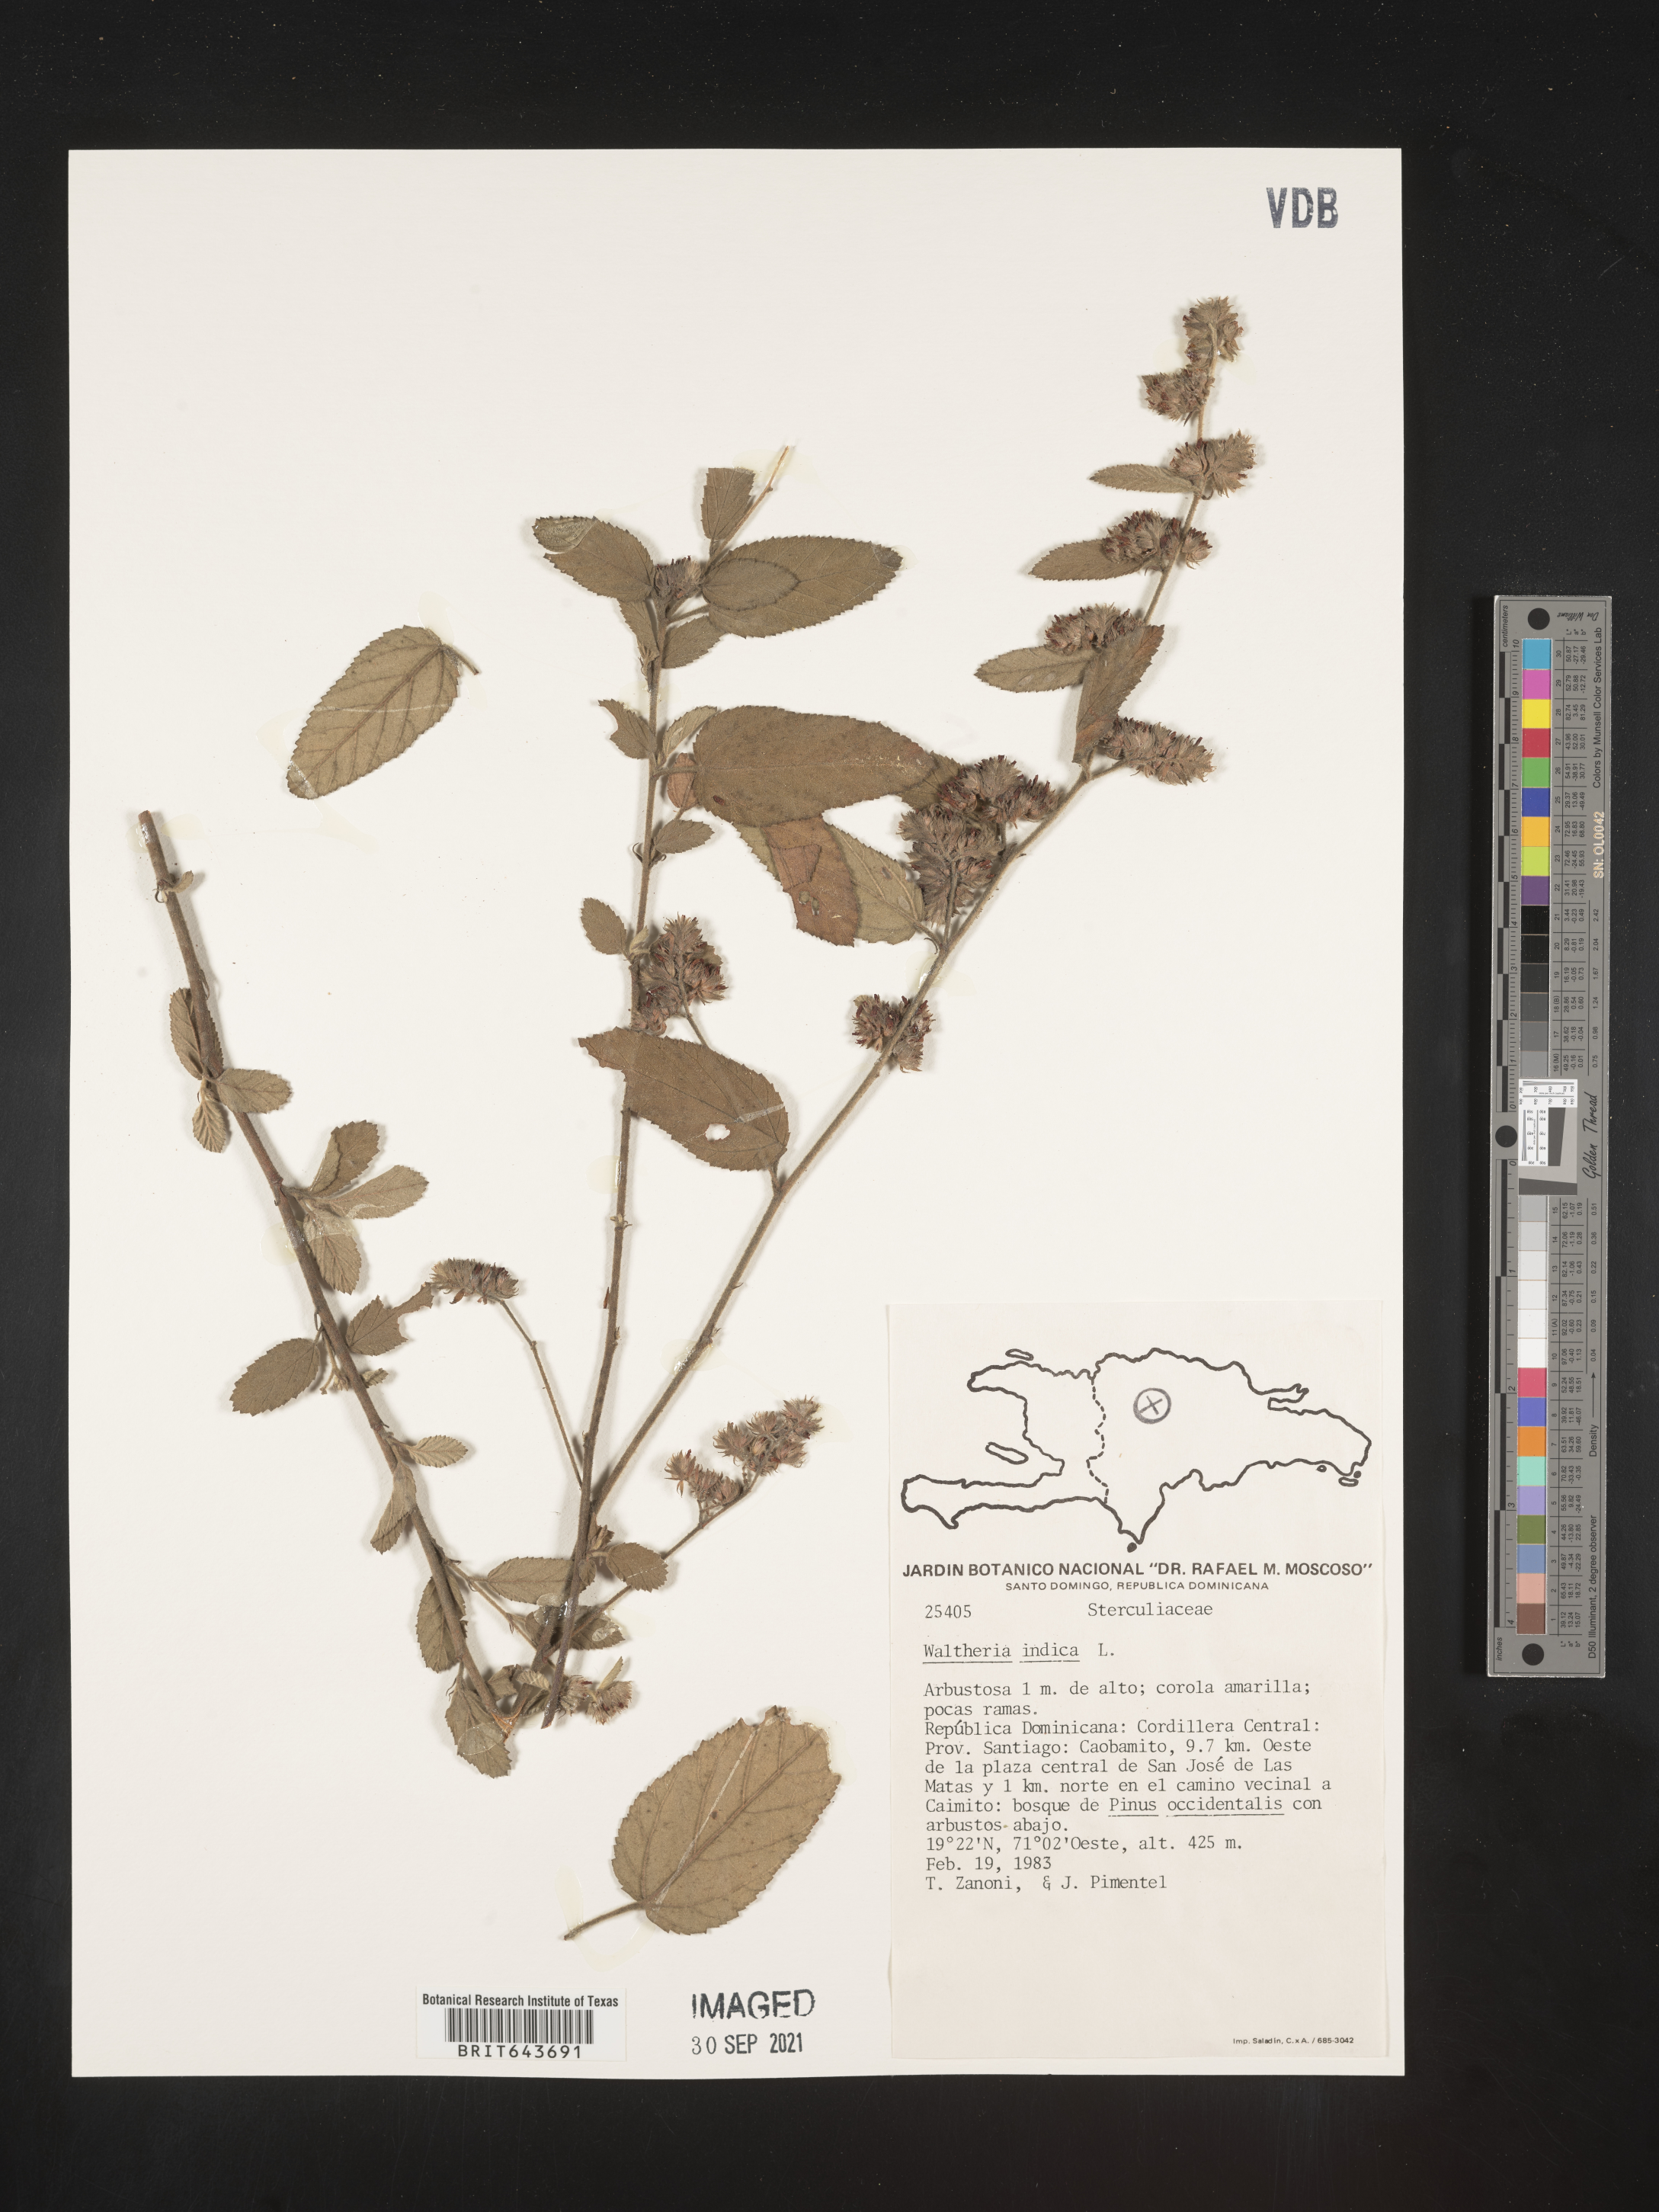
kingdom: Plantae
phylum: Tracheophyta
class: Magnoliopsida
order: Malvales
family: Malvaceae
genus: Waltheria
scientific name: Waltheria
